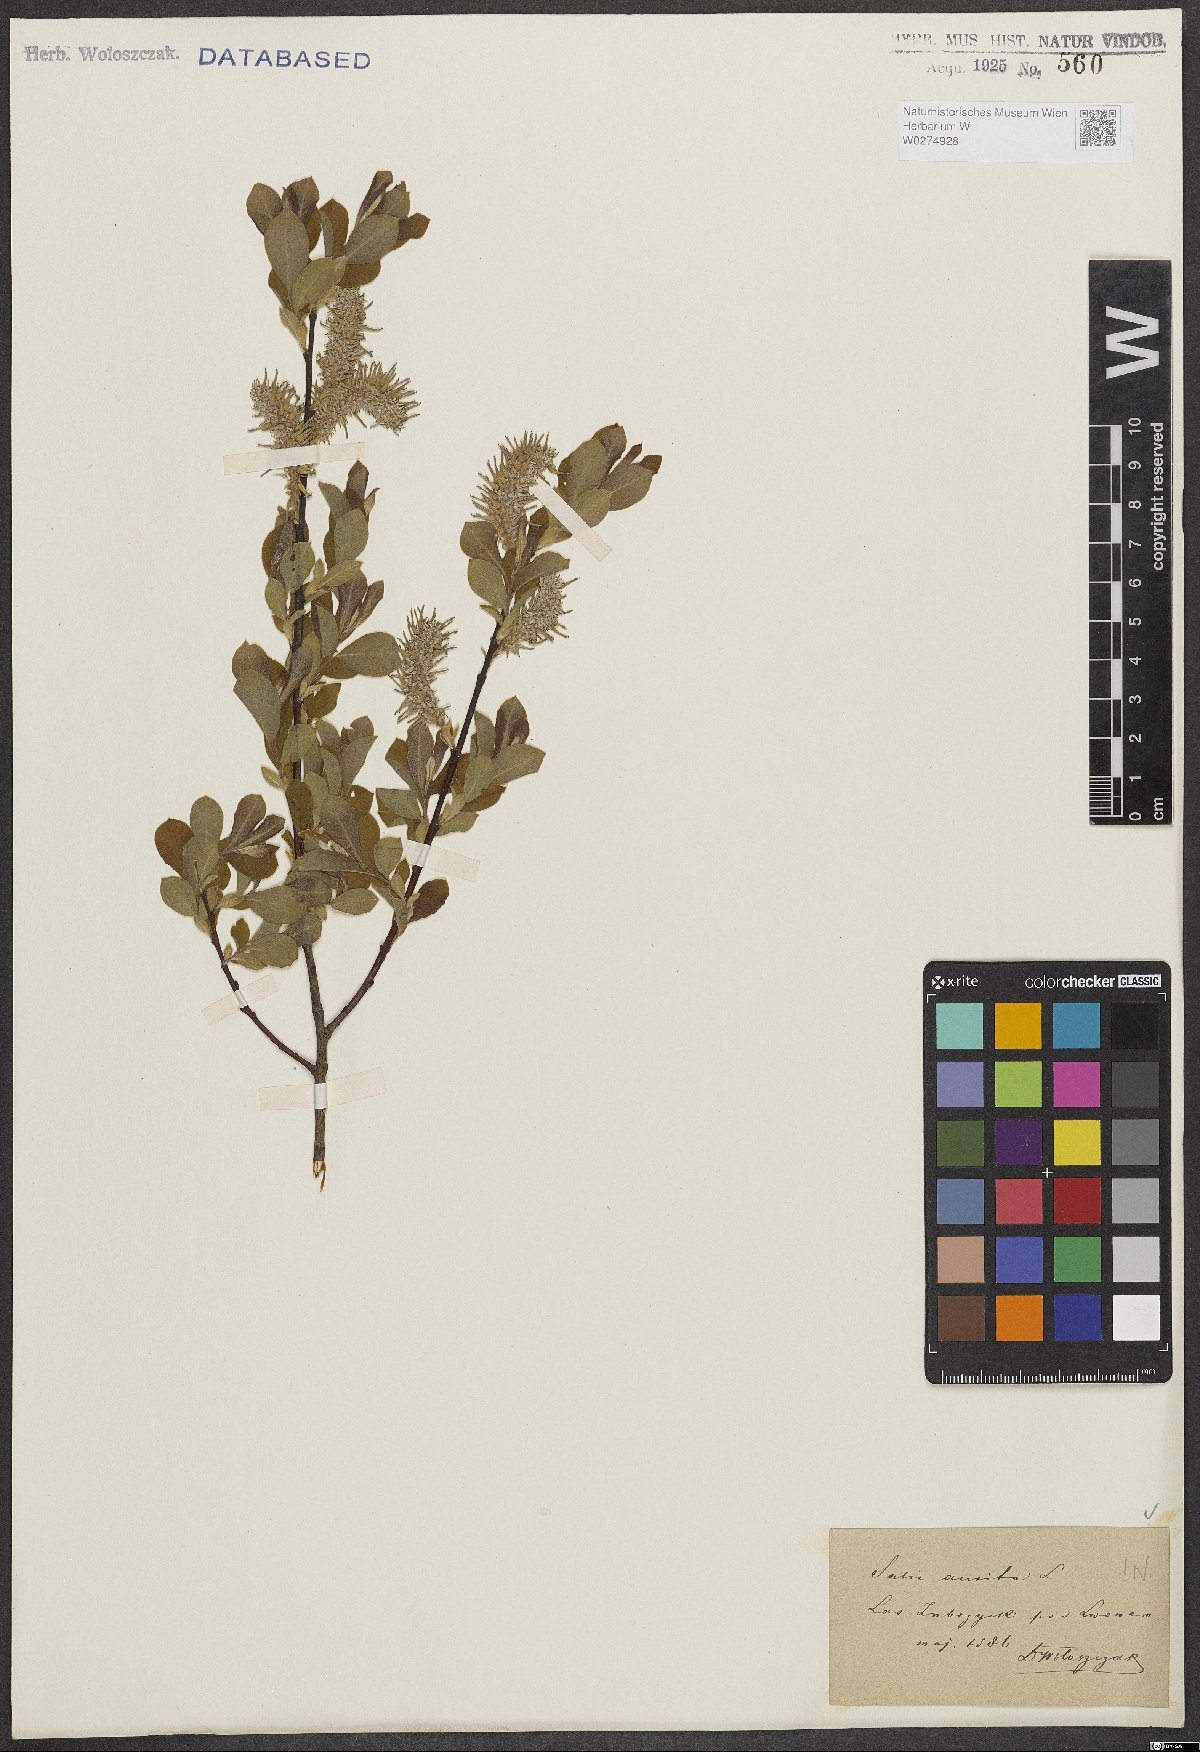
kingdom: Plantae
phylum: Tracheophyta
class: Magnoliopsida
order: Malpighiales
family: Salicaceae
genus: Salix
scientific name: Salix aurita
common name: Eared willow
